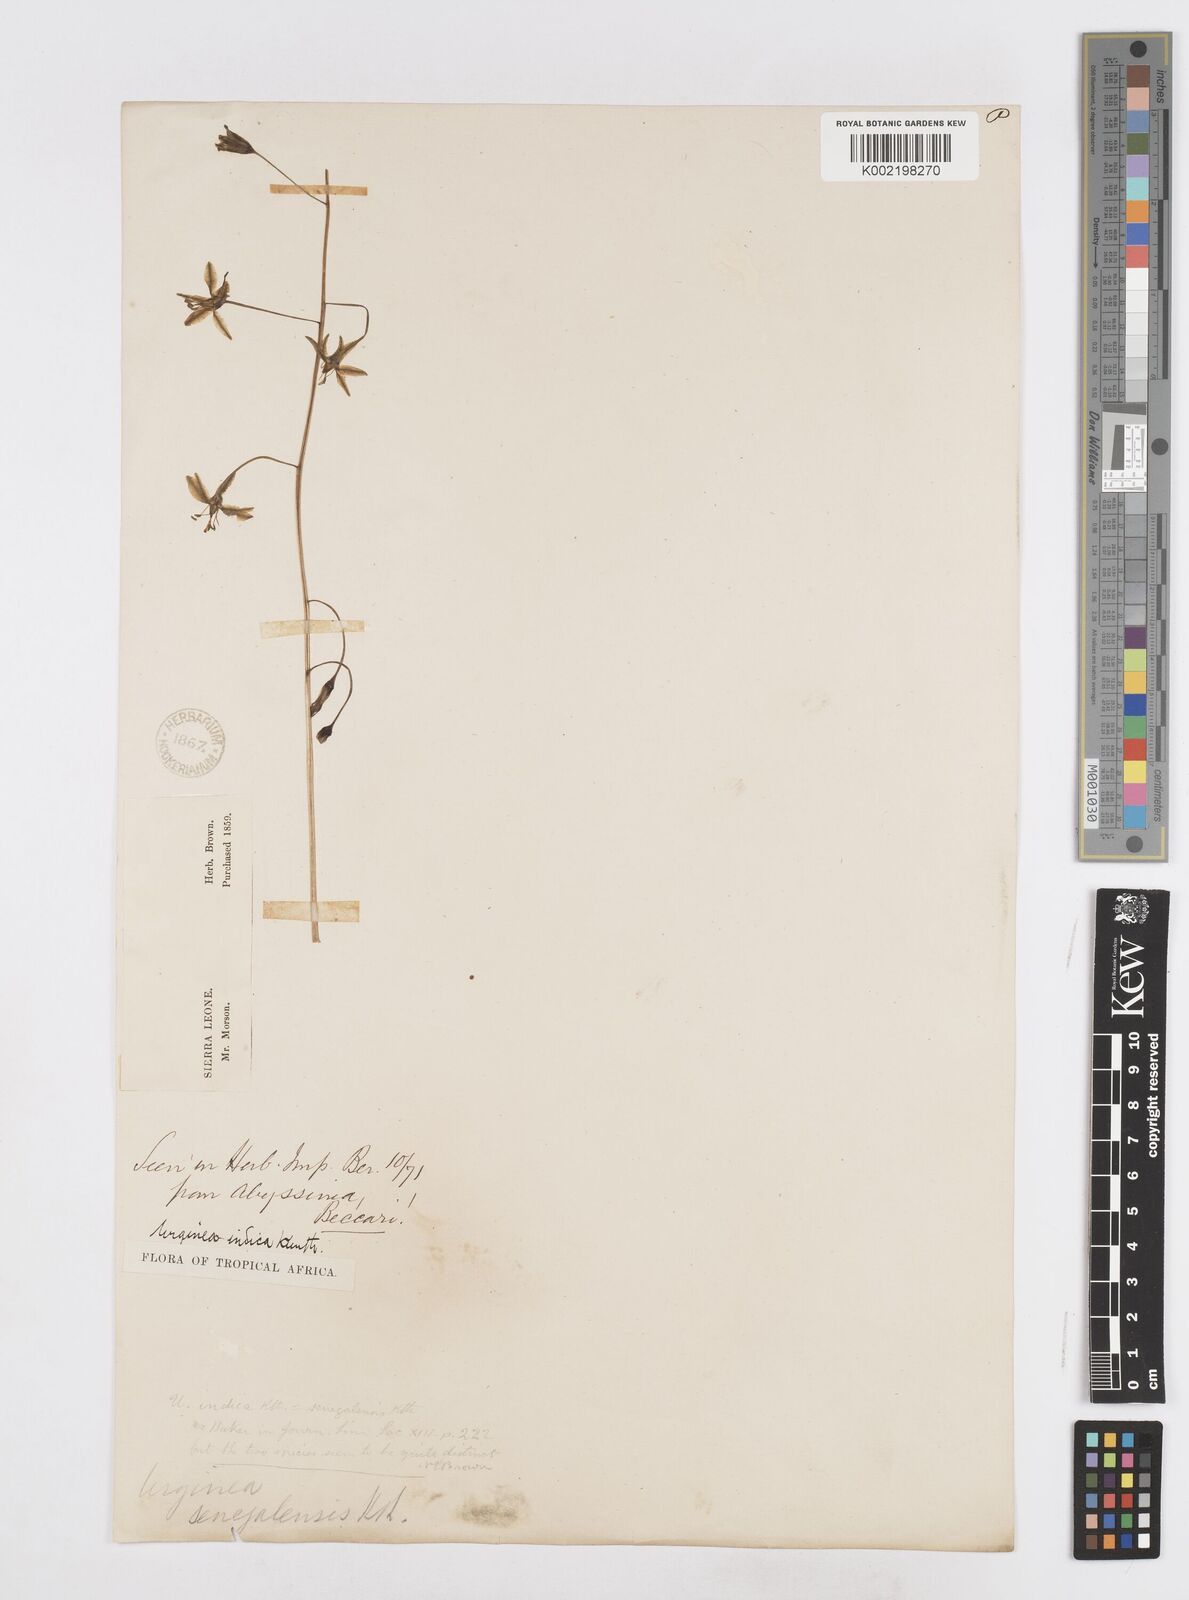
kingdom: Plantae
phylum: Tracheophyta
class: Liliopsida
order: Asparagales
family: Asparagaceae
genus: Drimia
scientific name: Drimia indica
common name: Indian-squill
